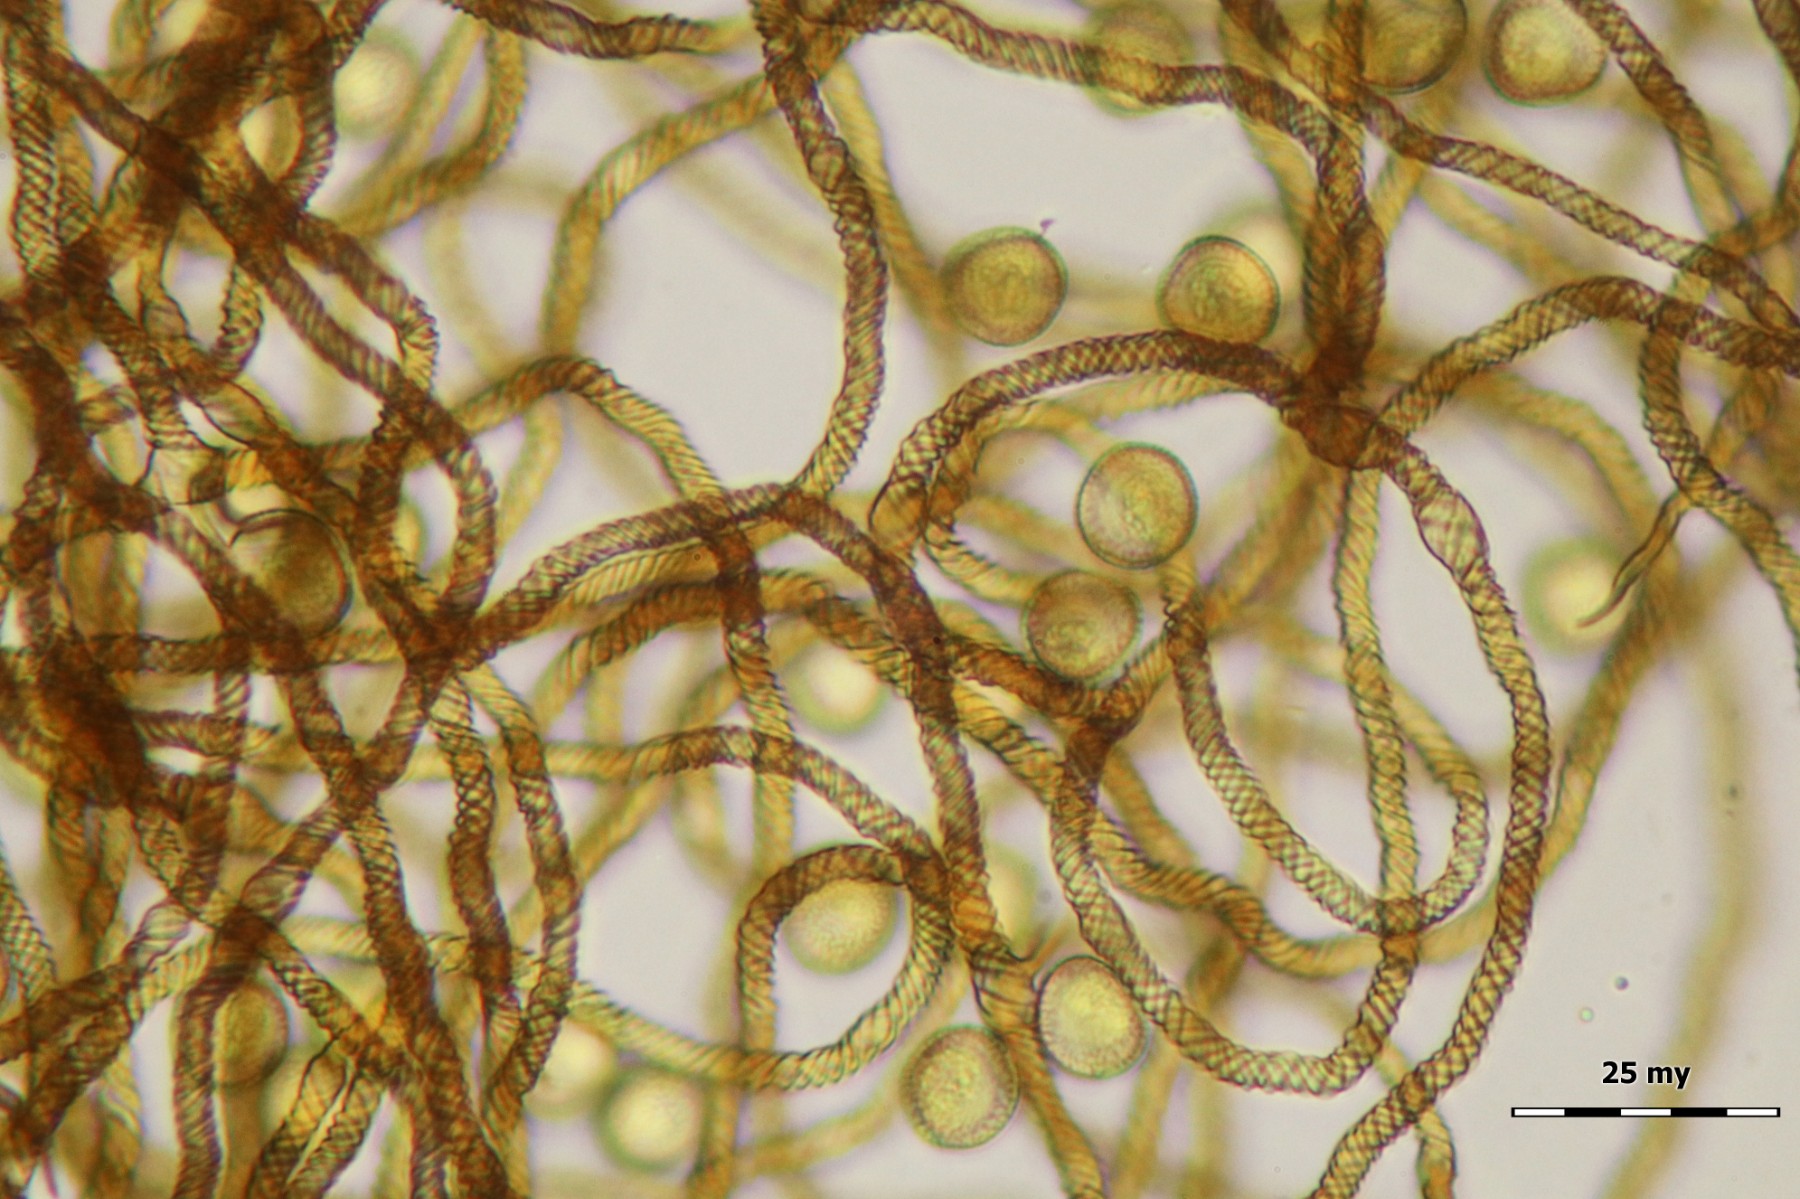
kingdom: Protozoa
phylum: Mycetozoa
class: Myxomycetes
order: Trichiales
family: Trichiaceae
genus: Trichia
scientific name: Trichia contorta
